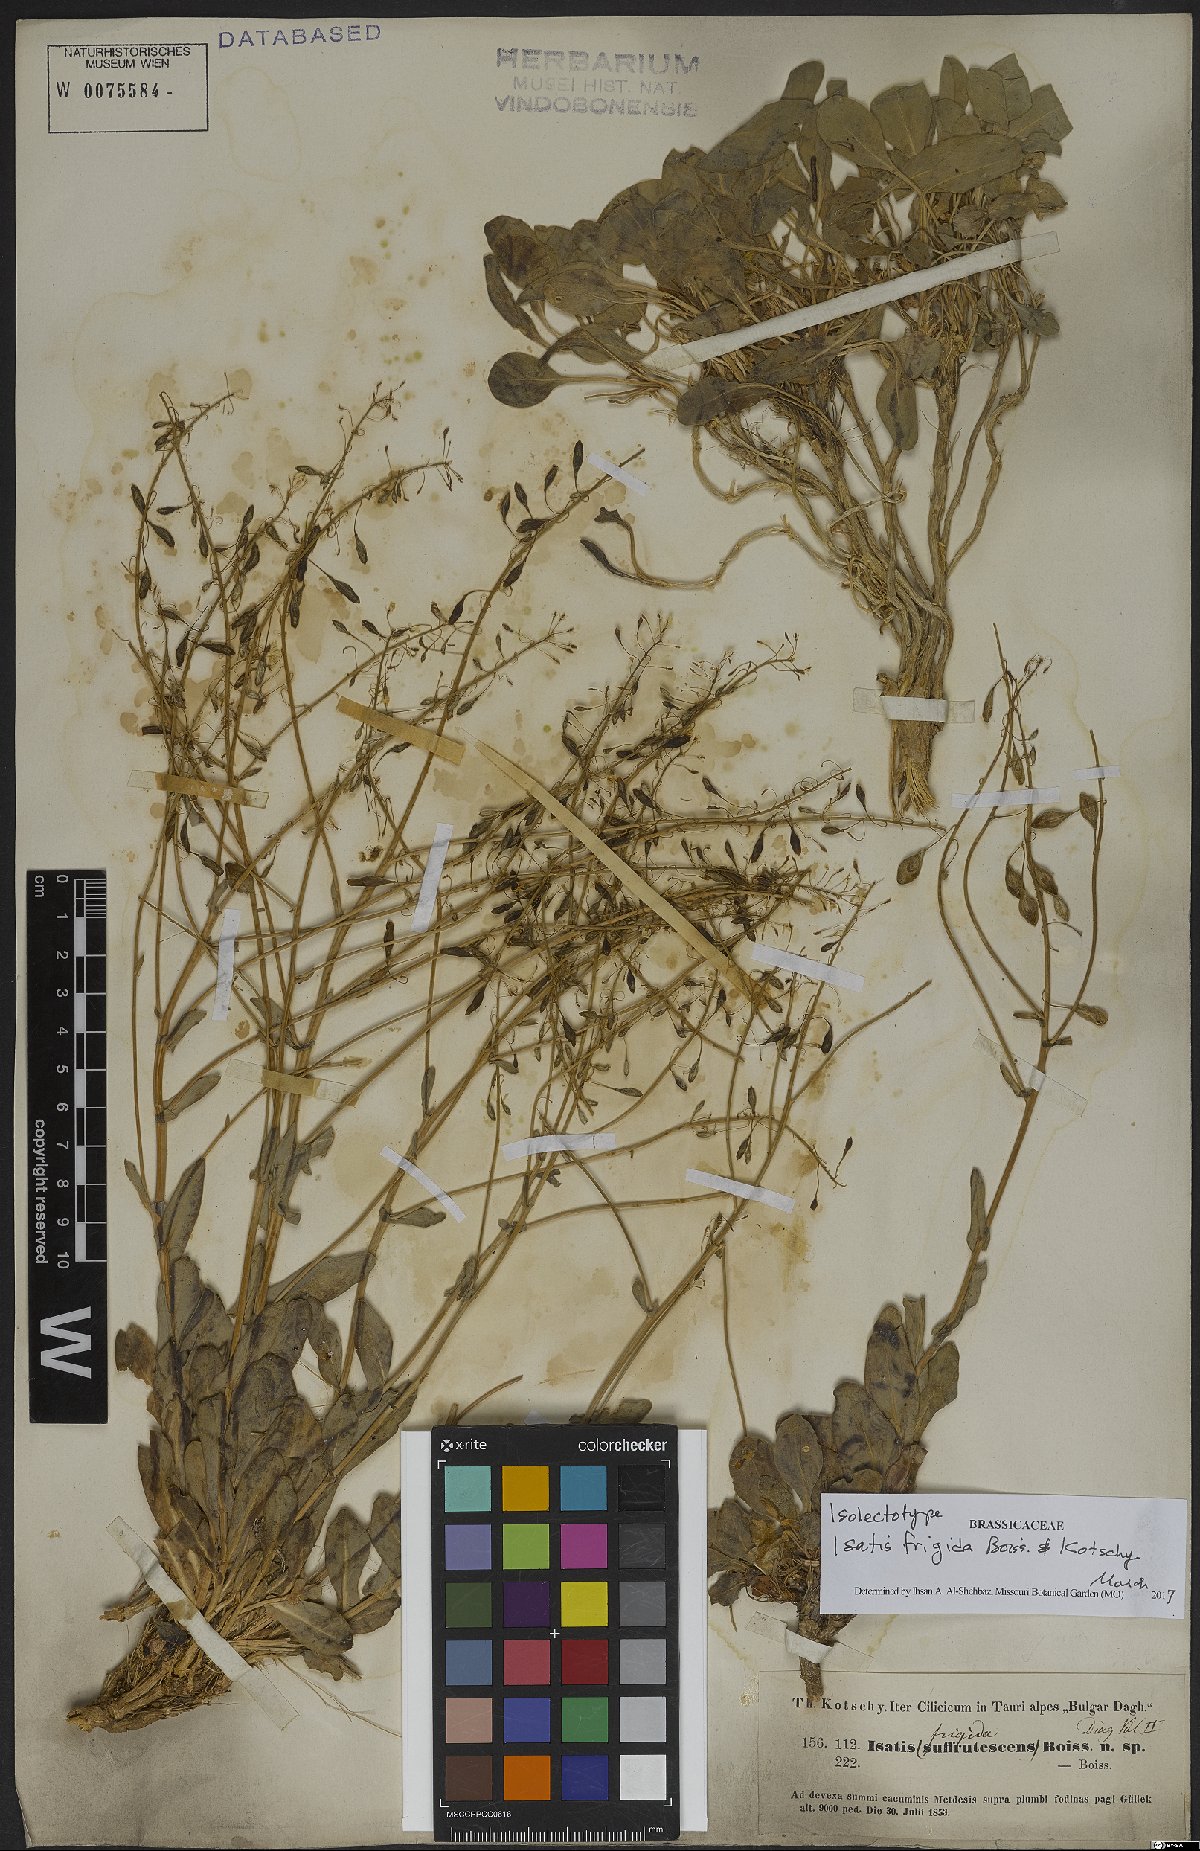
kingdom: Plantae
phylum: Tracheophyta
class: Magnoliopsida
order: Brassicales
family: Brassicaceae
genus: Isatis
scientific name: Isatis frigida
